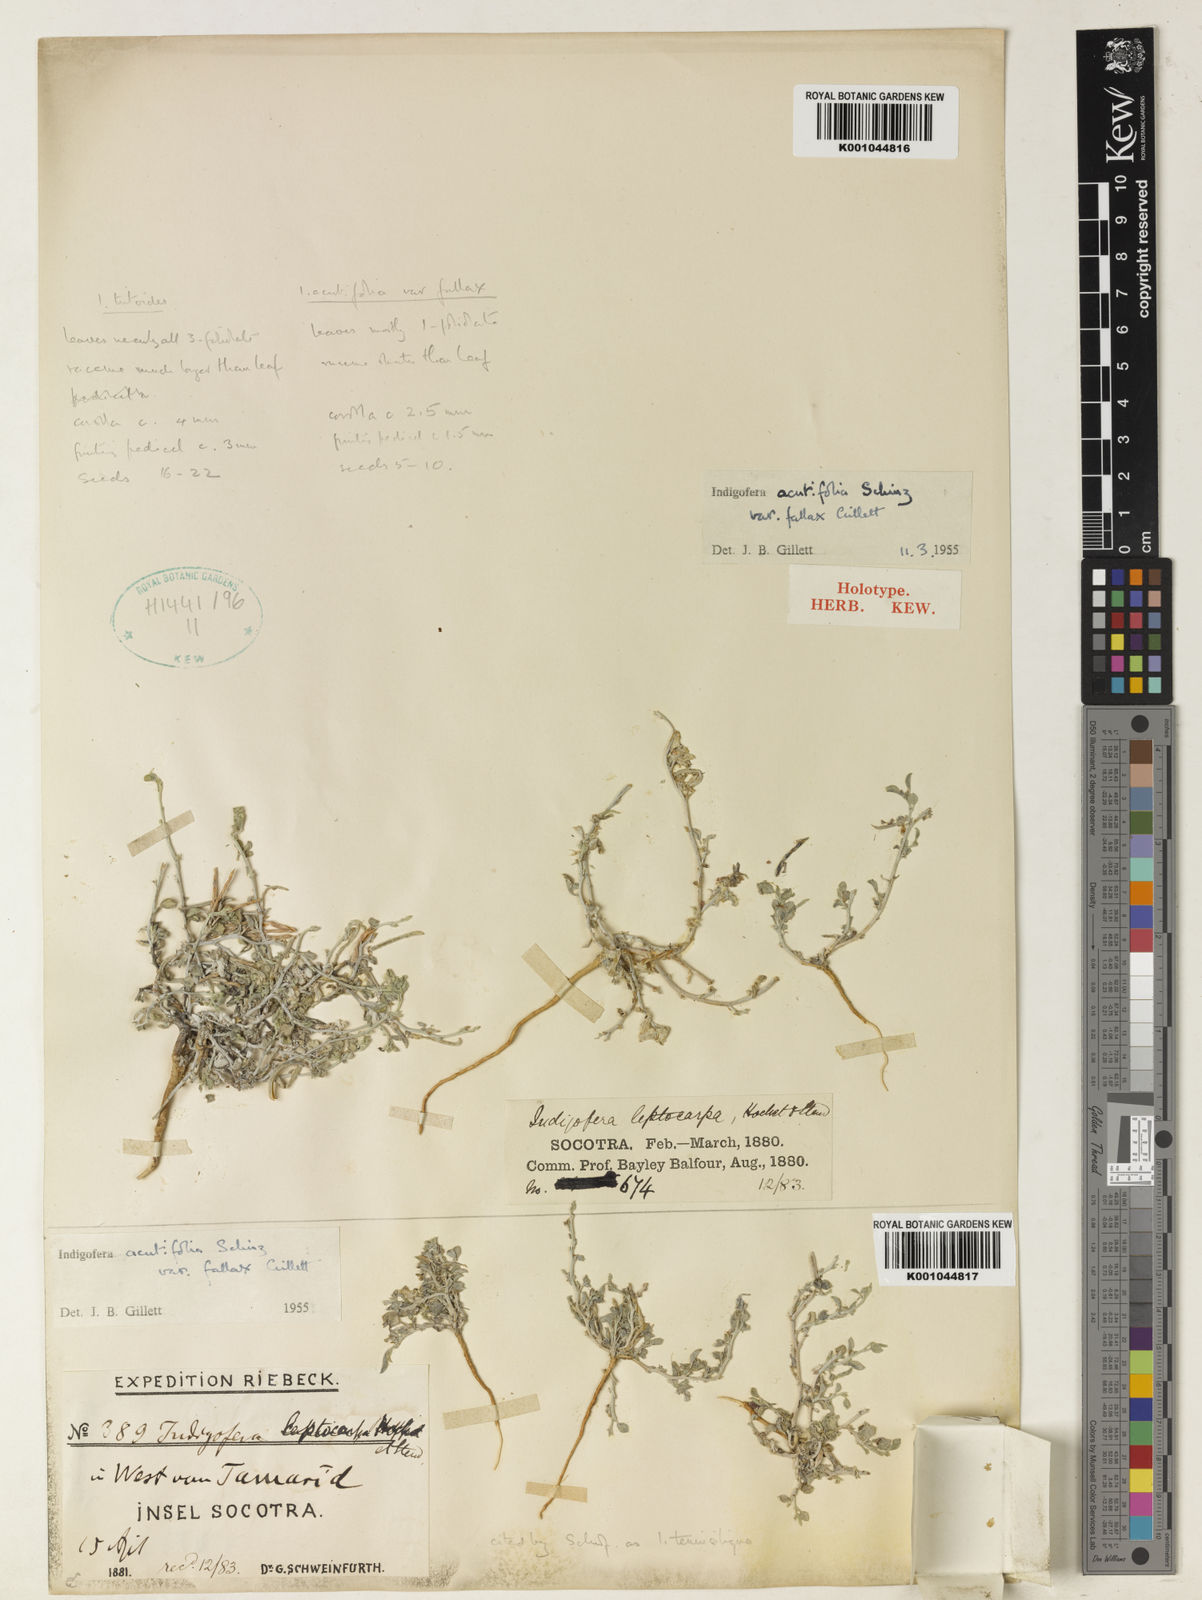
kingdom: Plantae
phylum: Tracheophyta
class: Magnoliopsida
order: Fabales
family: Fabaceae
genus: Indigofera
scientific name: Indigofera miniata
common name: Coast indigo
